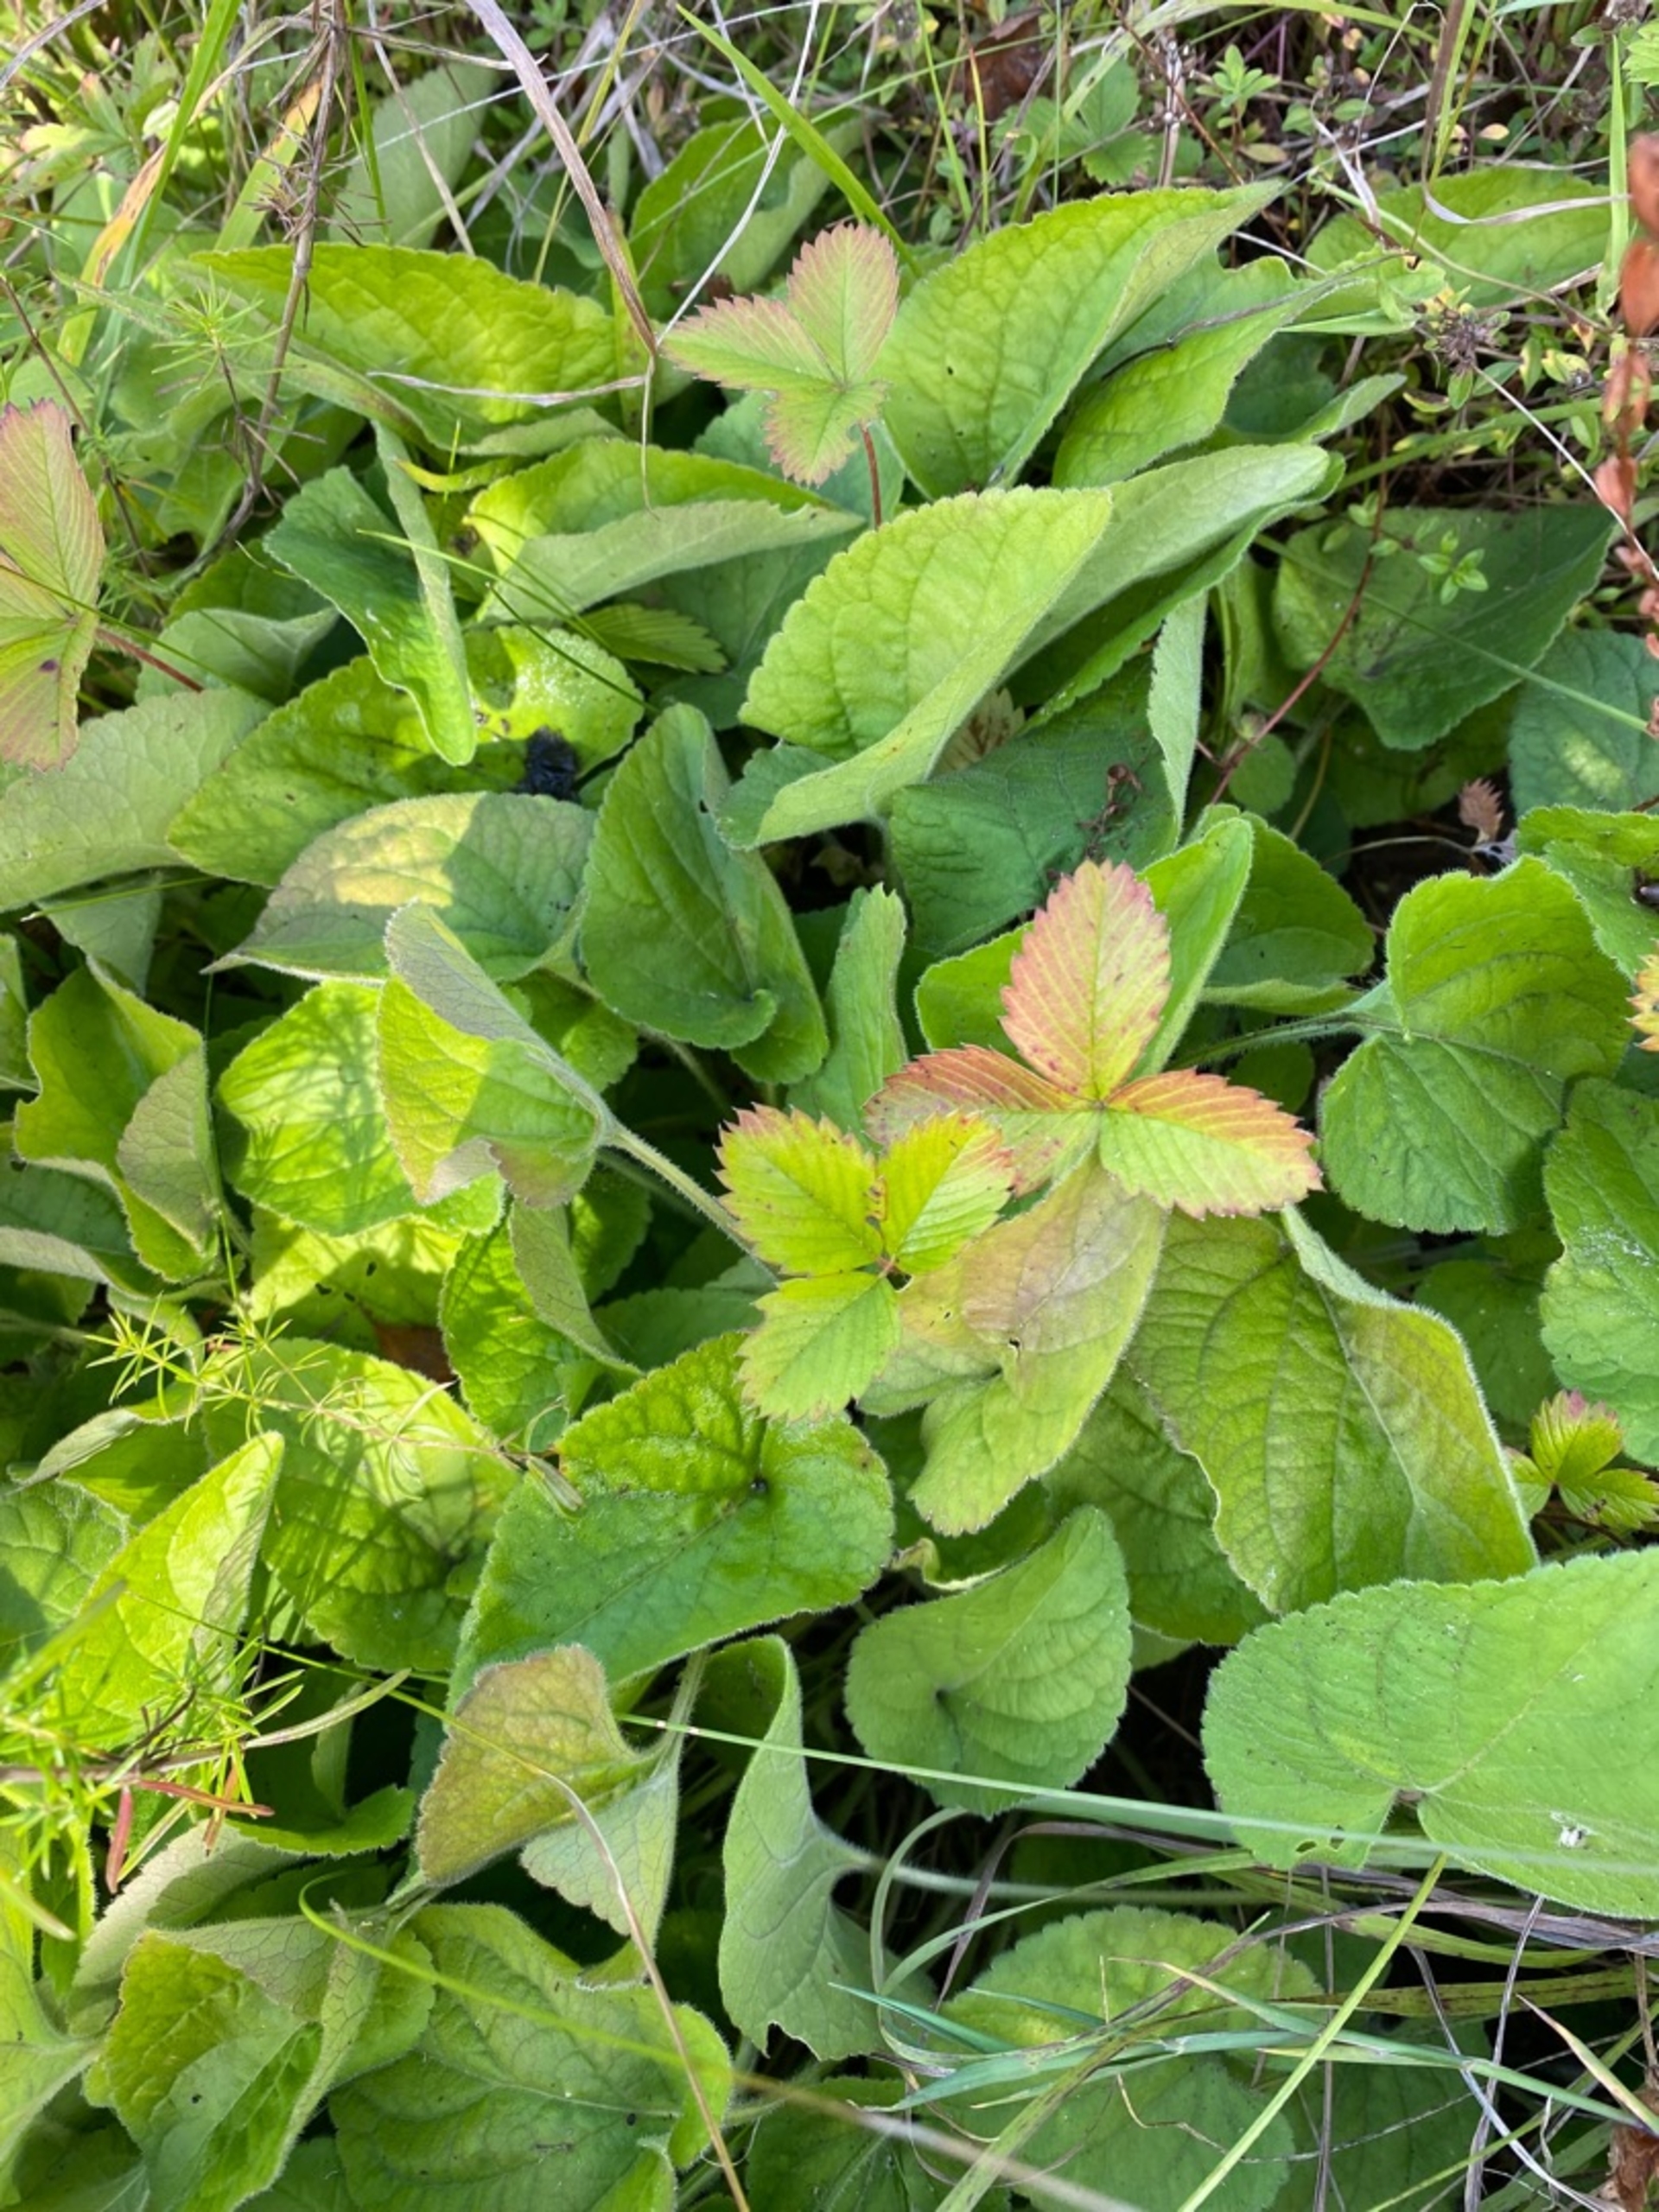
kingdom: Plantae
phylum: Tracheophyta
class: Magnoliopsida
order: Malpighiales
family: Violaceae
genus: Viola
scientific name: Viola hirta
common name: Håret viol
